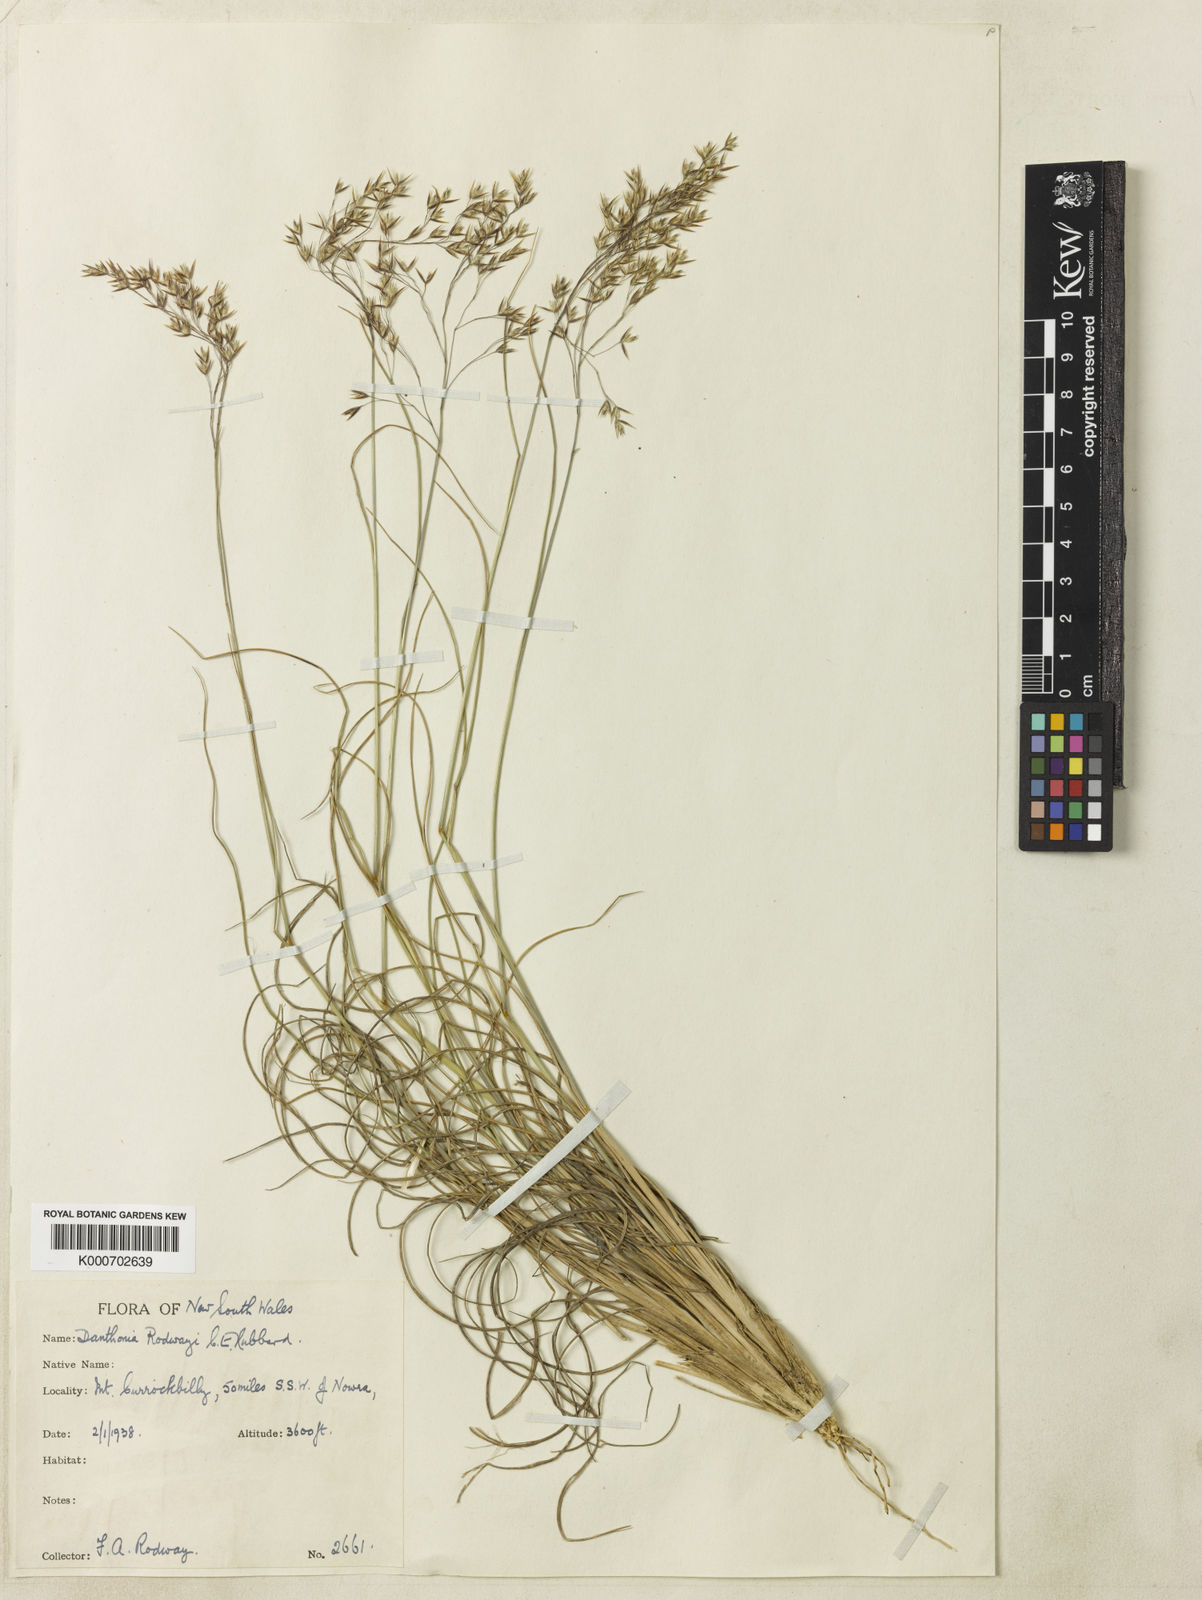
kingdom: Plantae
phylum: Tracheophyta
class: Liliopsida
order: Poales
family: Poaceae
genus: Plinthanthesis
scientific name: Plinthanthesis rodwayi
